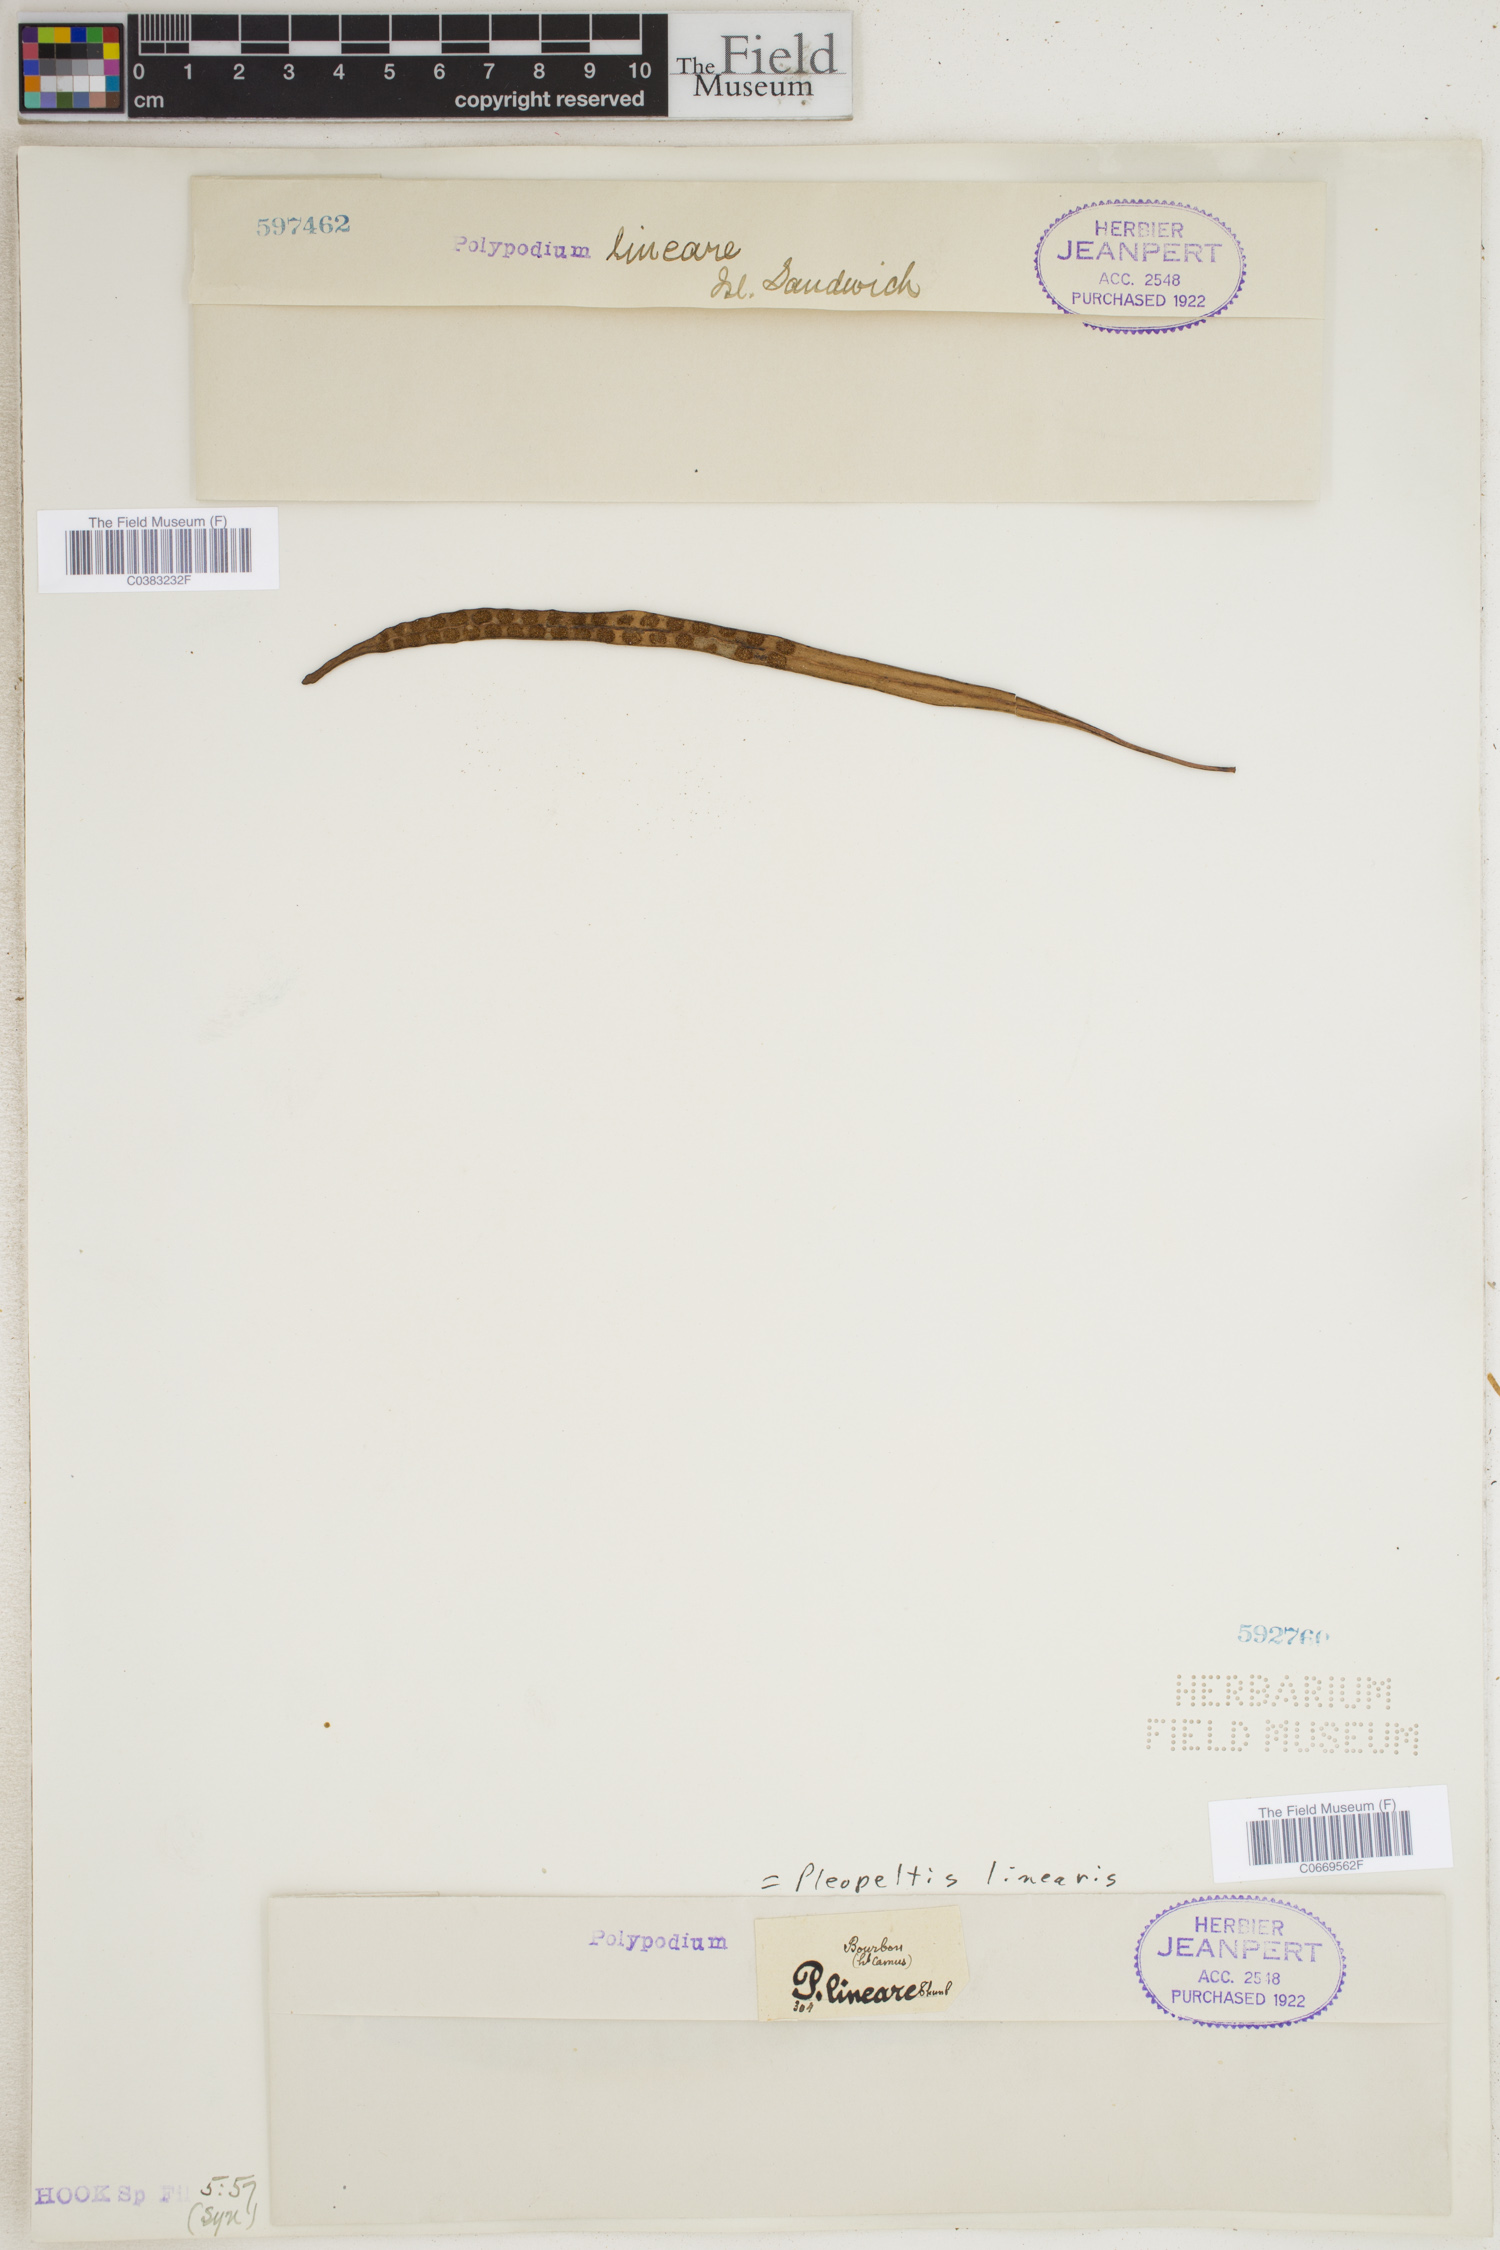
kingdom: Plantae
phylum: Tracheophyta
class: Polypodiopsida
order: Polypodiales
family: Polypodiaceae
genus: Lepisorus
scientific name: Lepisorus thunbergianus
